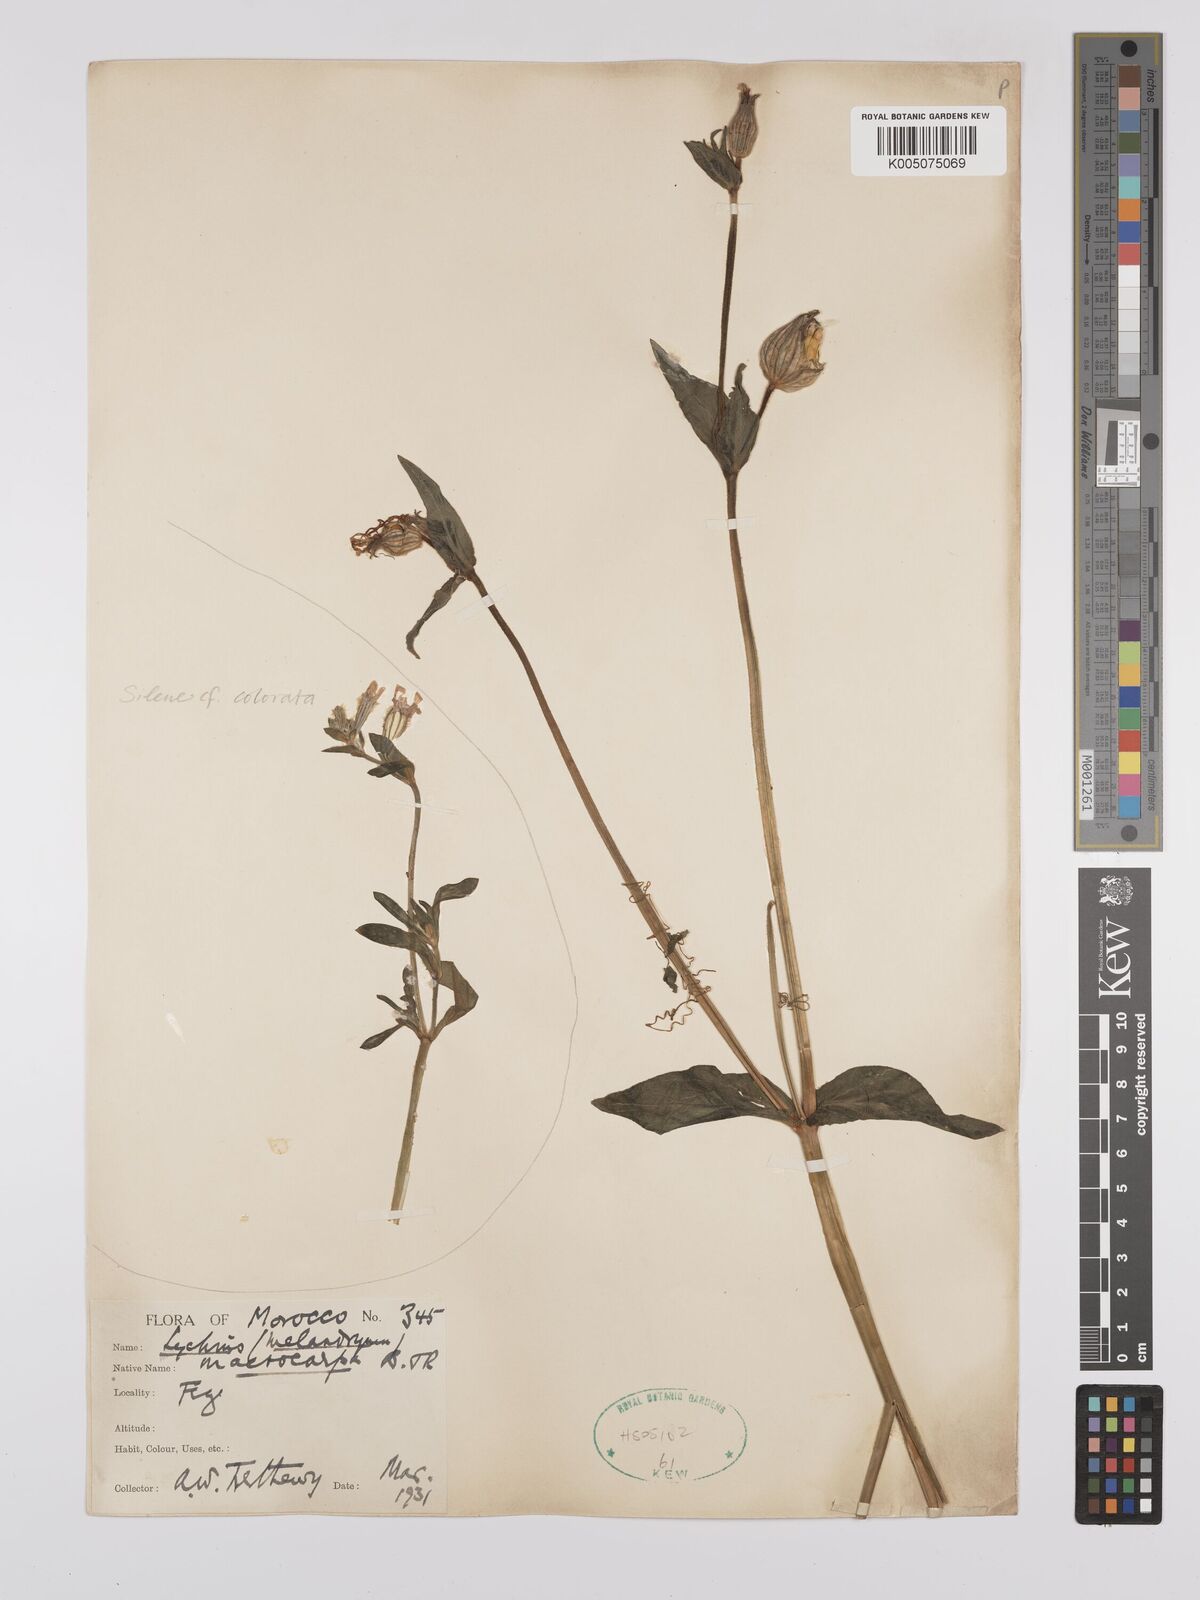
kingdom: Plantae
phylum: Tracheophyta
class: Magnoliopsida
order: Caryophyllales
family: Caryophyllaceae
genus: Silene
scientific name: Silene
